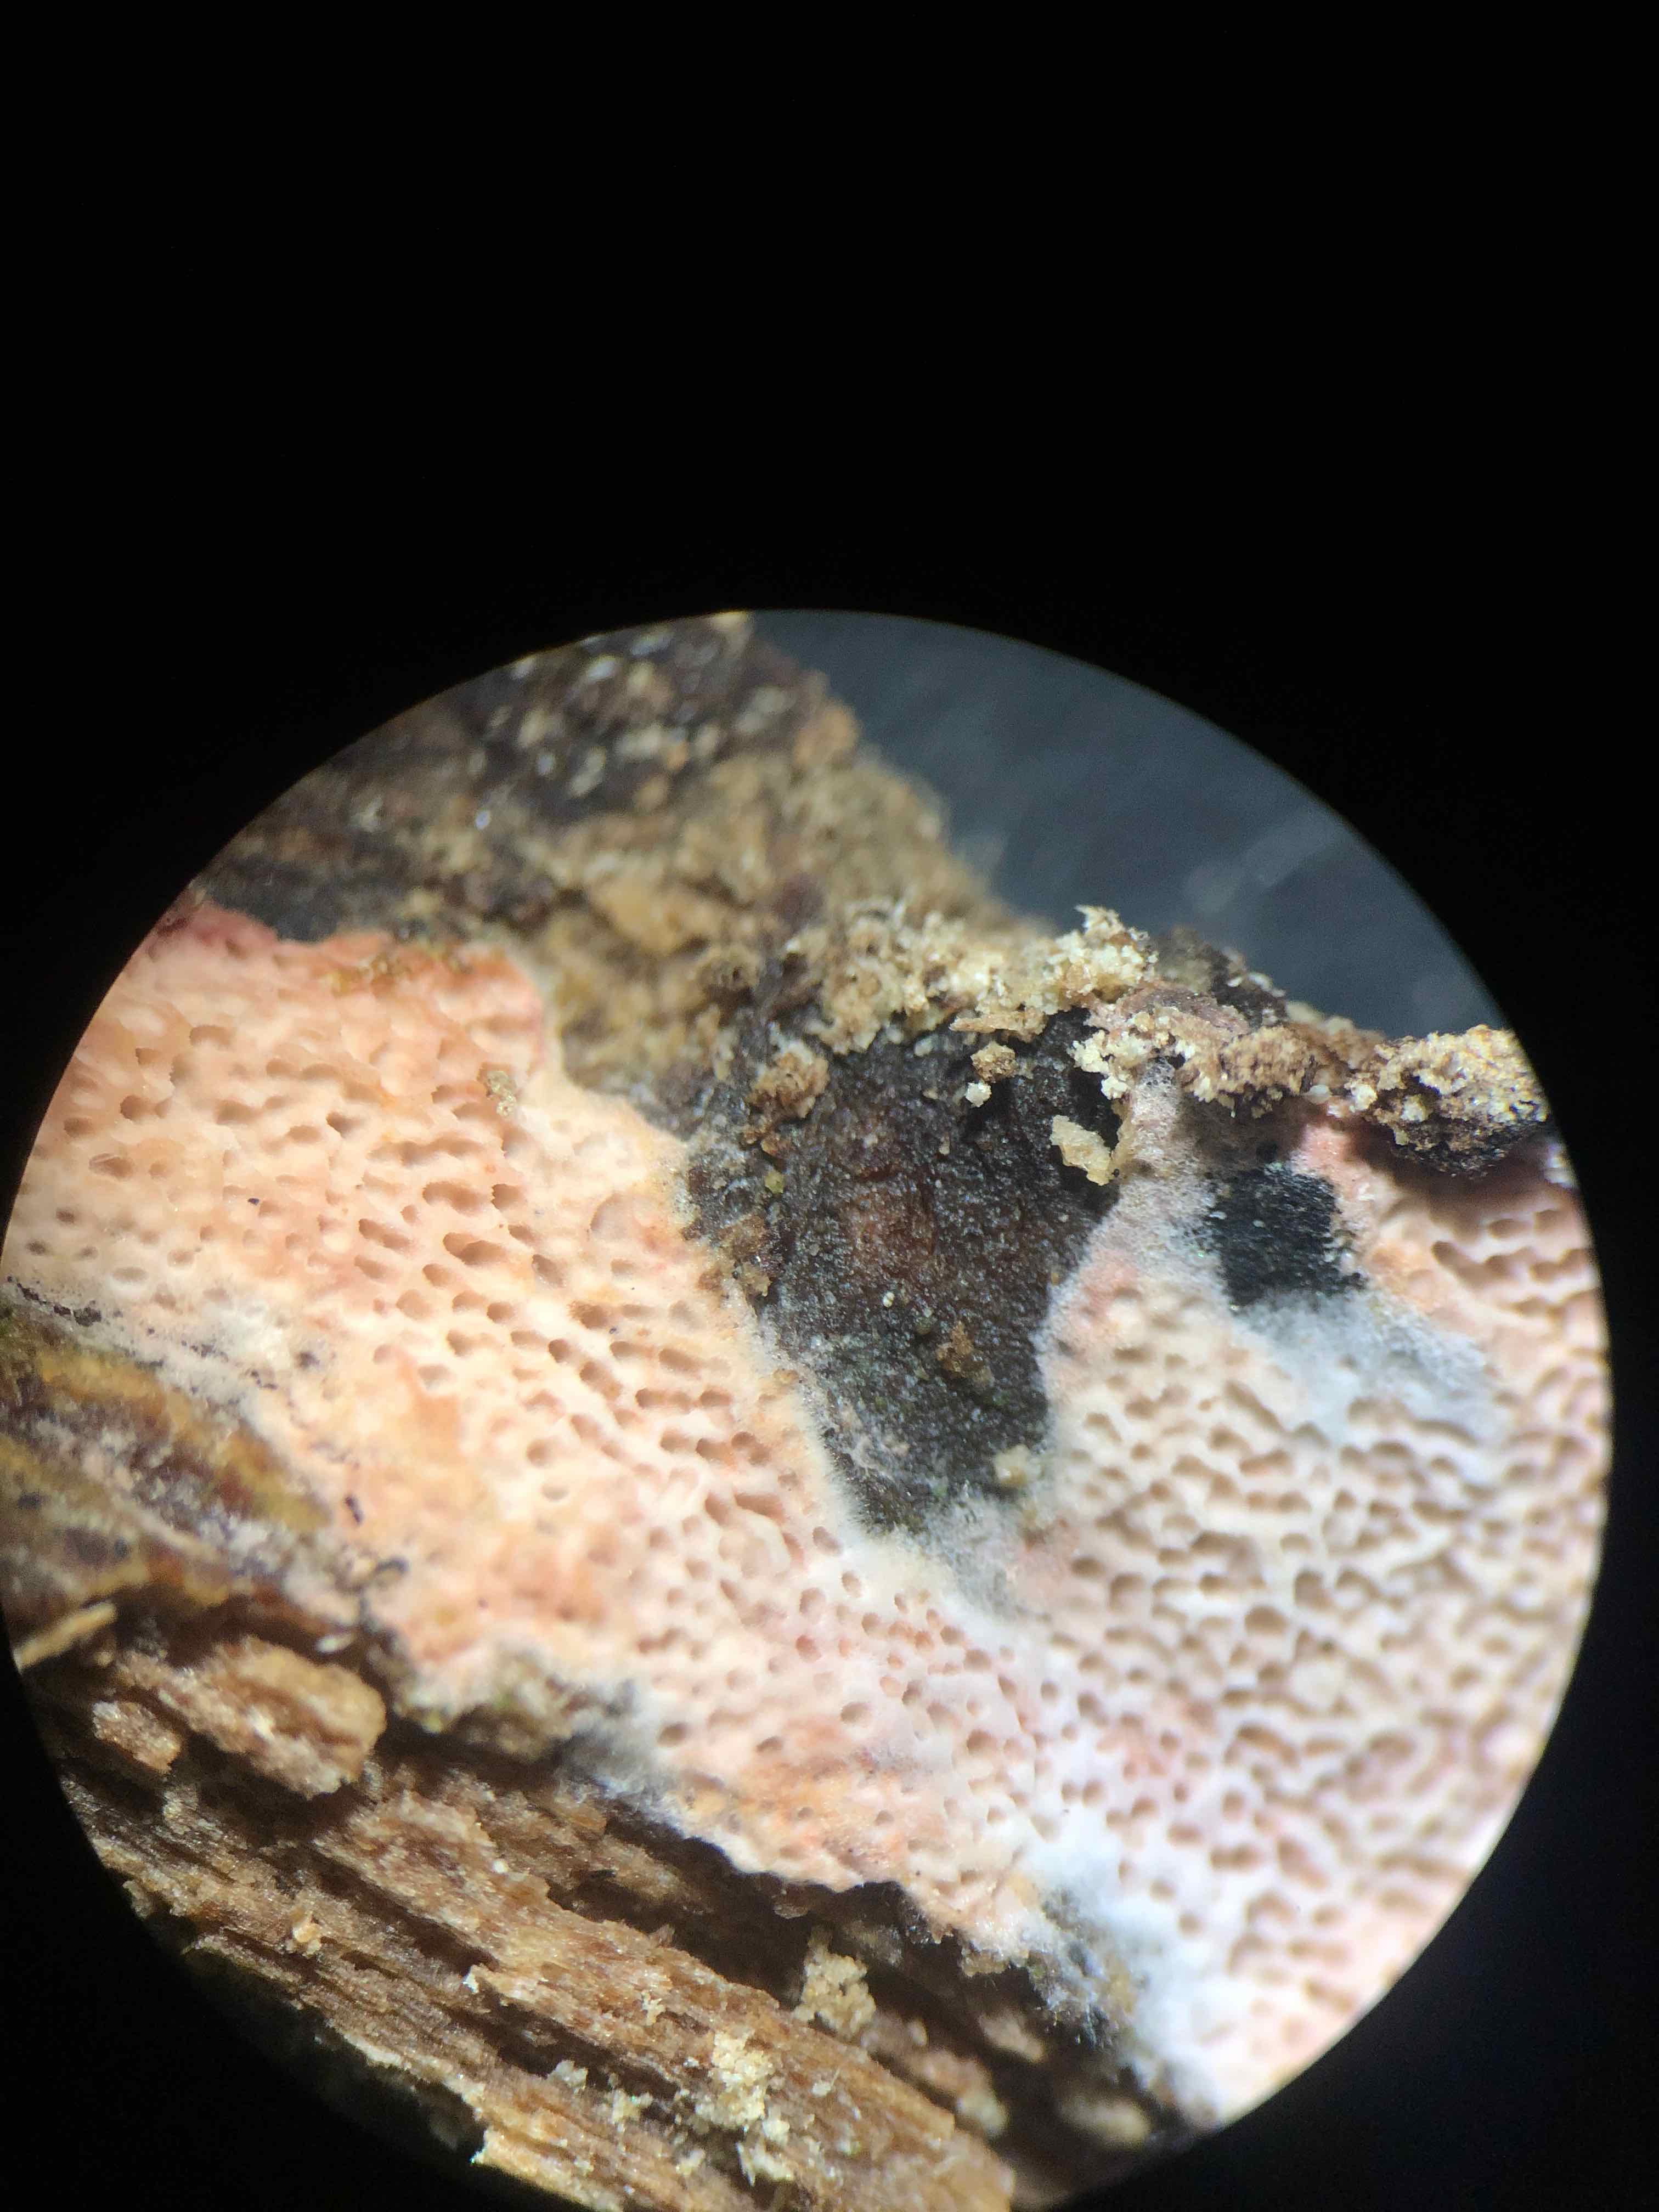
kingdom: Fungi
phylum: Basidiomycota
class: Agaricomycetes
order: Polyporales
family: Irpicaceae
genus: Ceriporia
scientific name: Ceriporia purpurea
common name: purpur-voksporesvamp
